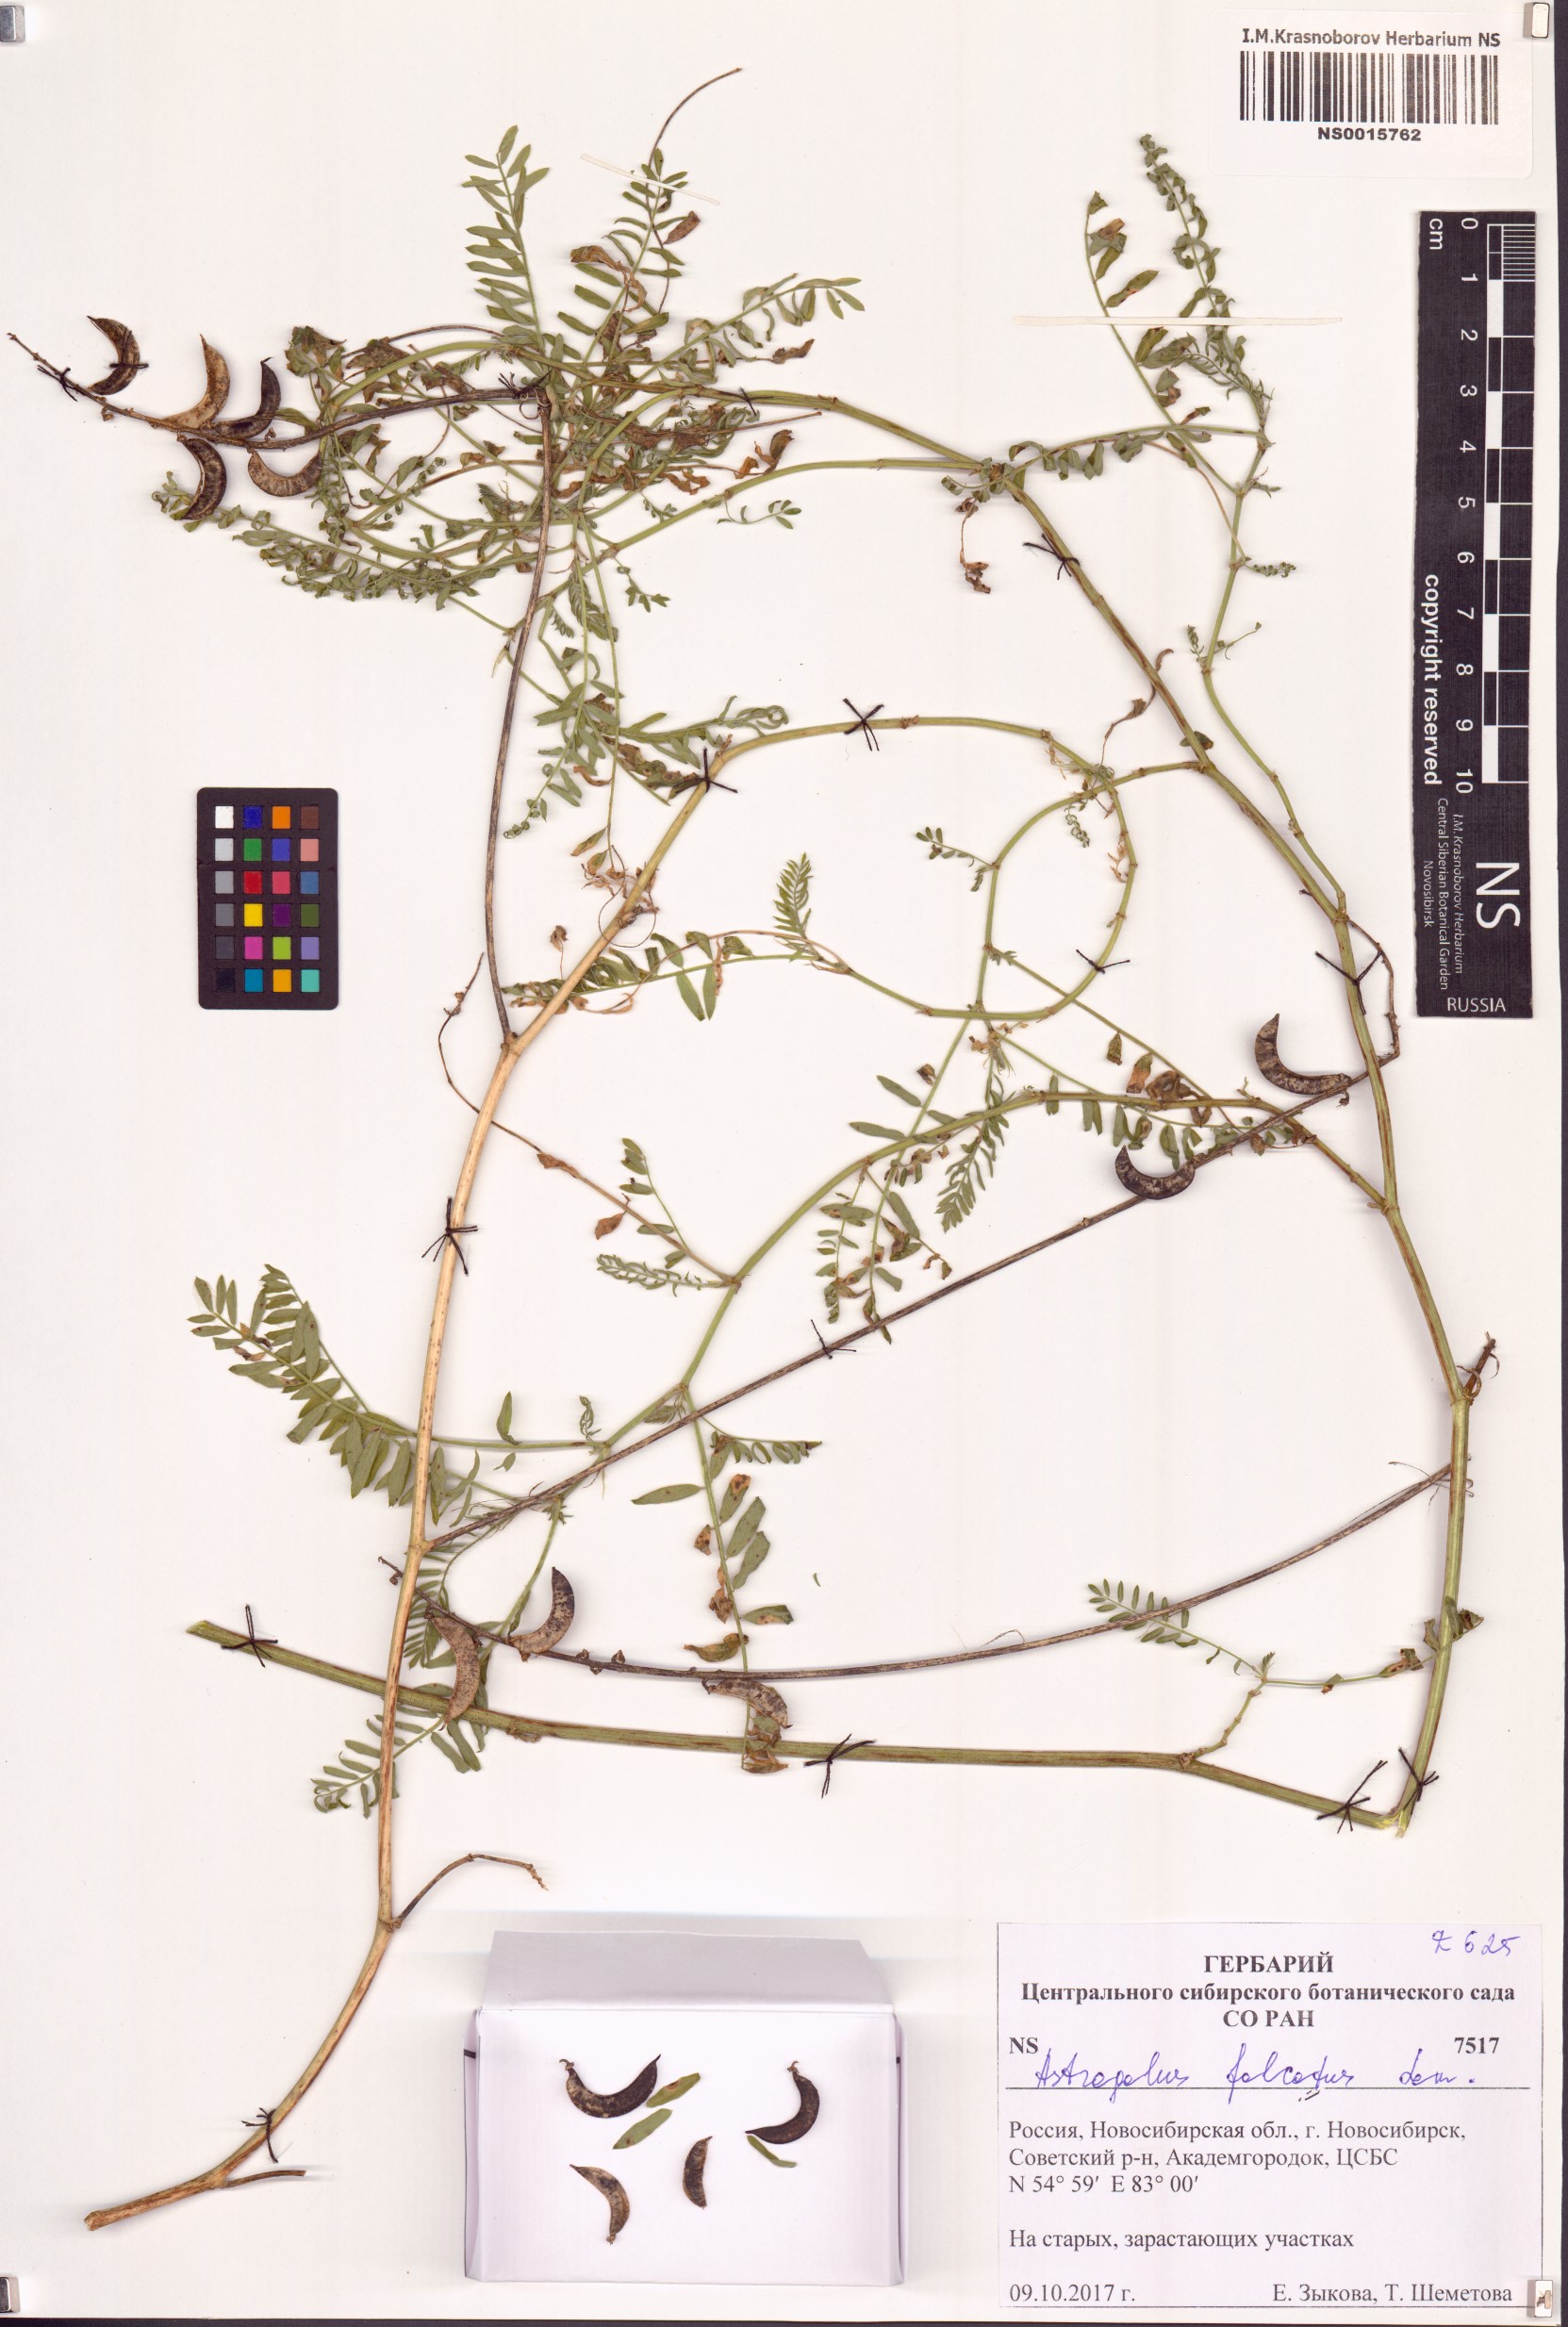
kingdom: Plantae
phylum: Tracheophyta
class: Magnoliopsida
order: Fabales
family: Fabaceae
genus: Astragalus
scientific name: Astragalus falcatus
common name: Russian sickle milk-vetch
